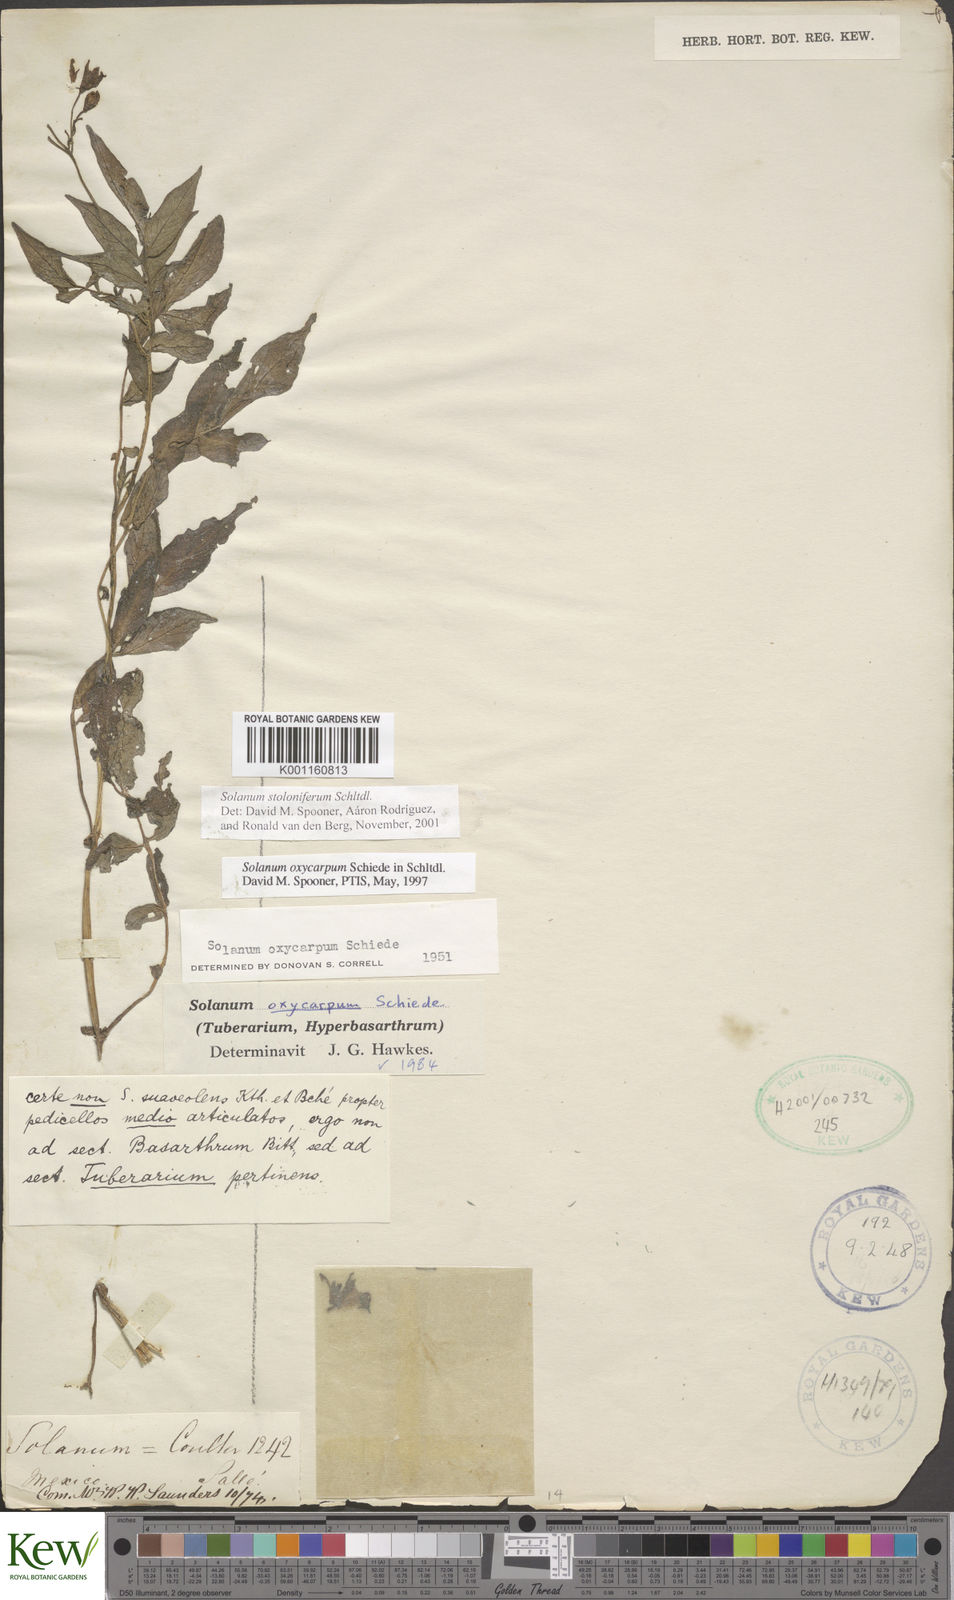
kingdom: Plantae
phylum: Tracheophyta
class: Magnoliopsida
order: Solanales
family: Solanaceae
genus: Solanum
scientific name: Solanum stoloniferum
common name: Fendler's nighshade
